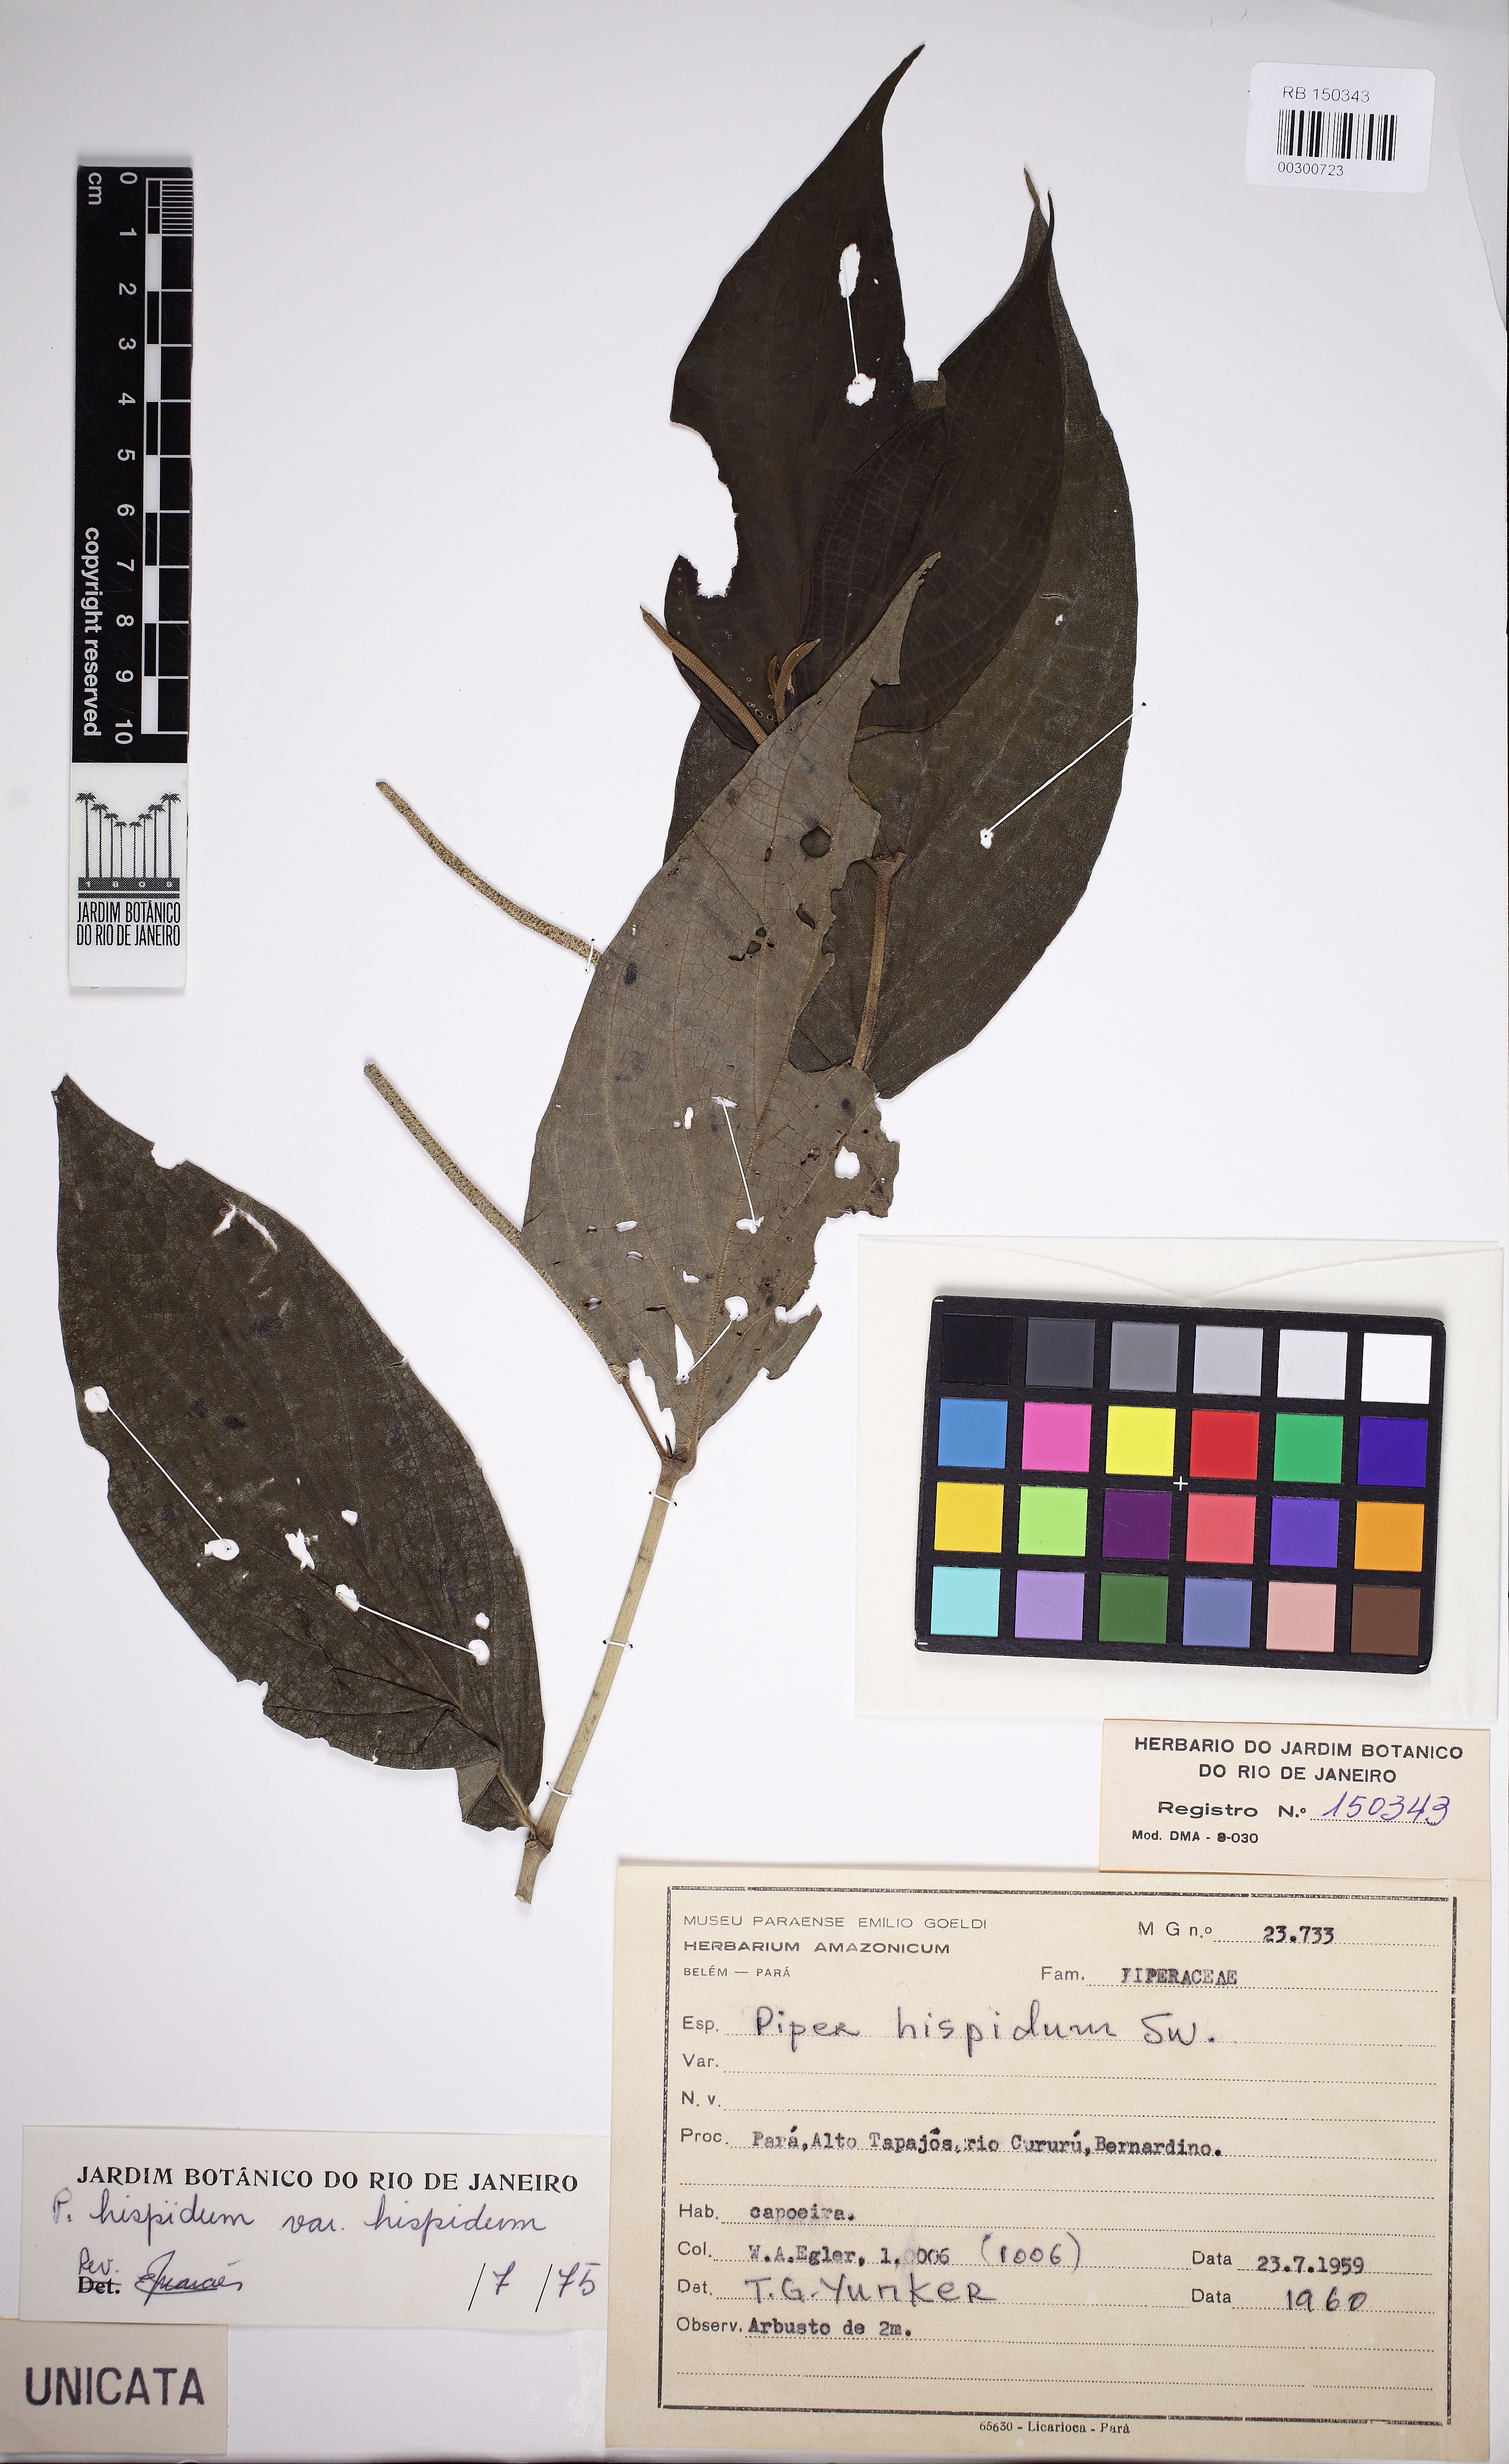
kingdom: Plantae
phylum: Tracheophyta
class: Magnoliopsida
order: Piperales
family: Piperaceae
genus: Piper
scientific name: Piper hispidum
